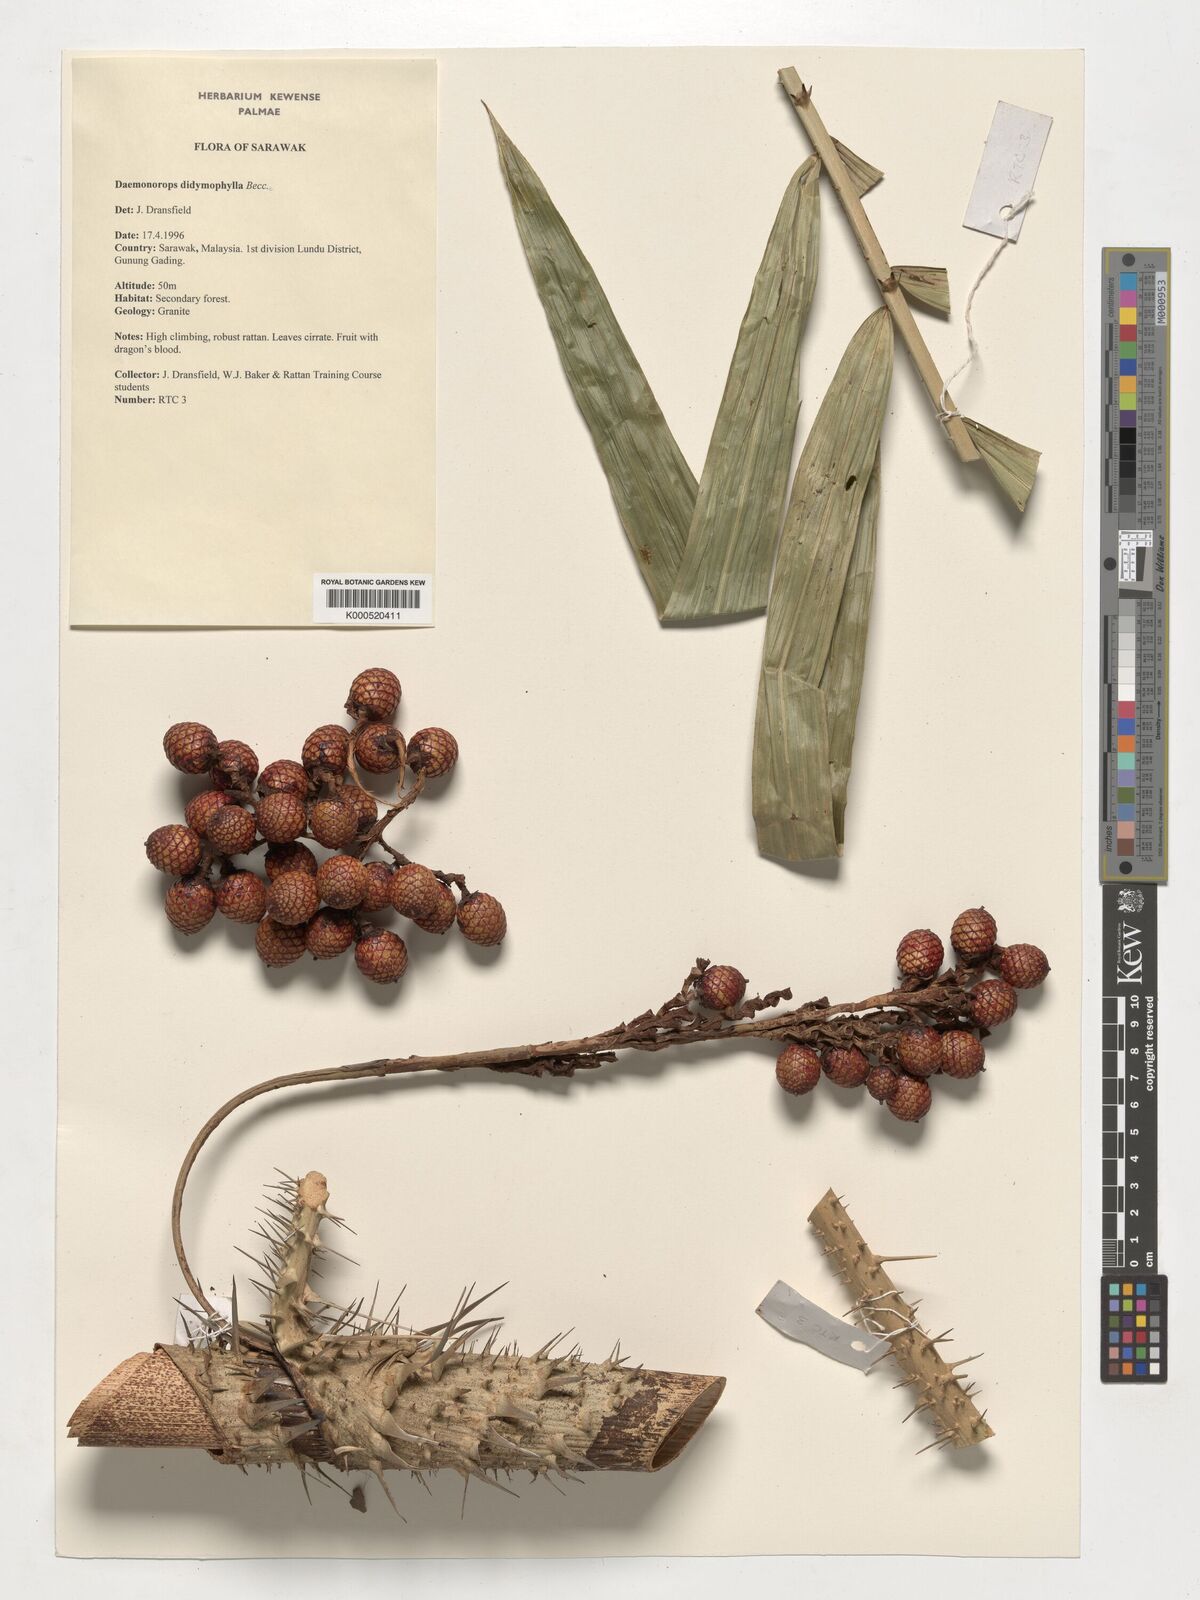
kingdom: Plantae
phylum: Tracheophyta
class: Liliopsida
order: Arecales
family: Arecaceae
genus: Calamus
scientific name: Calamus gracilipes
